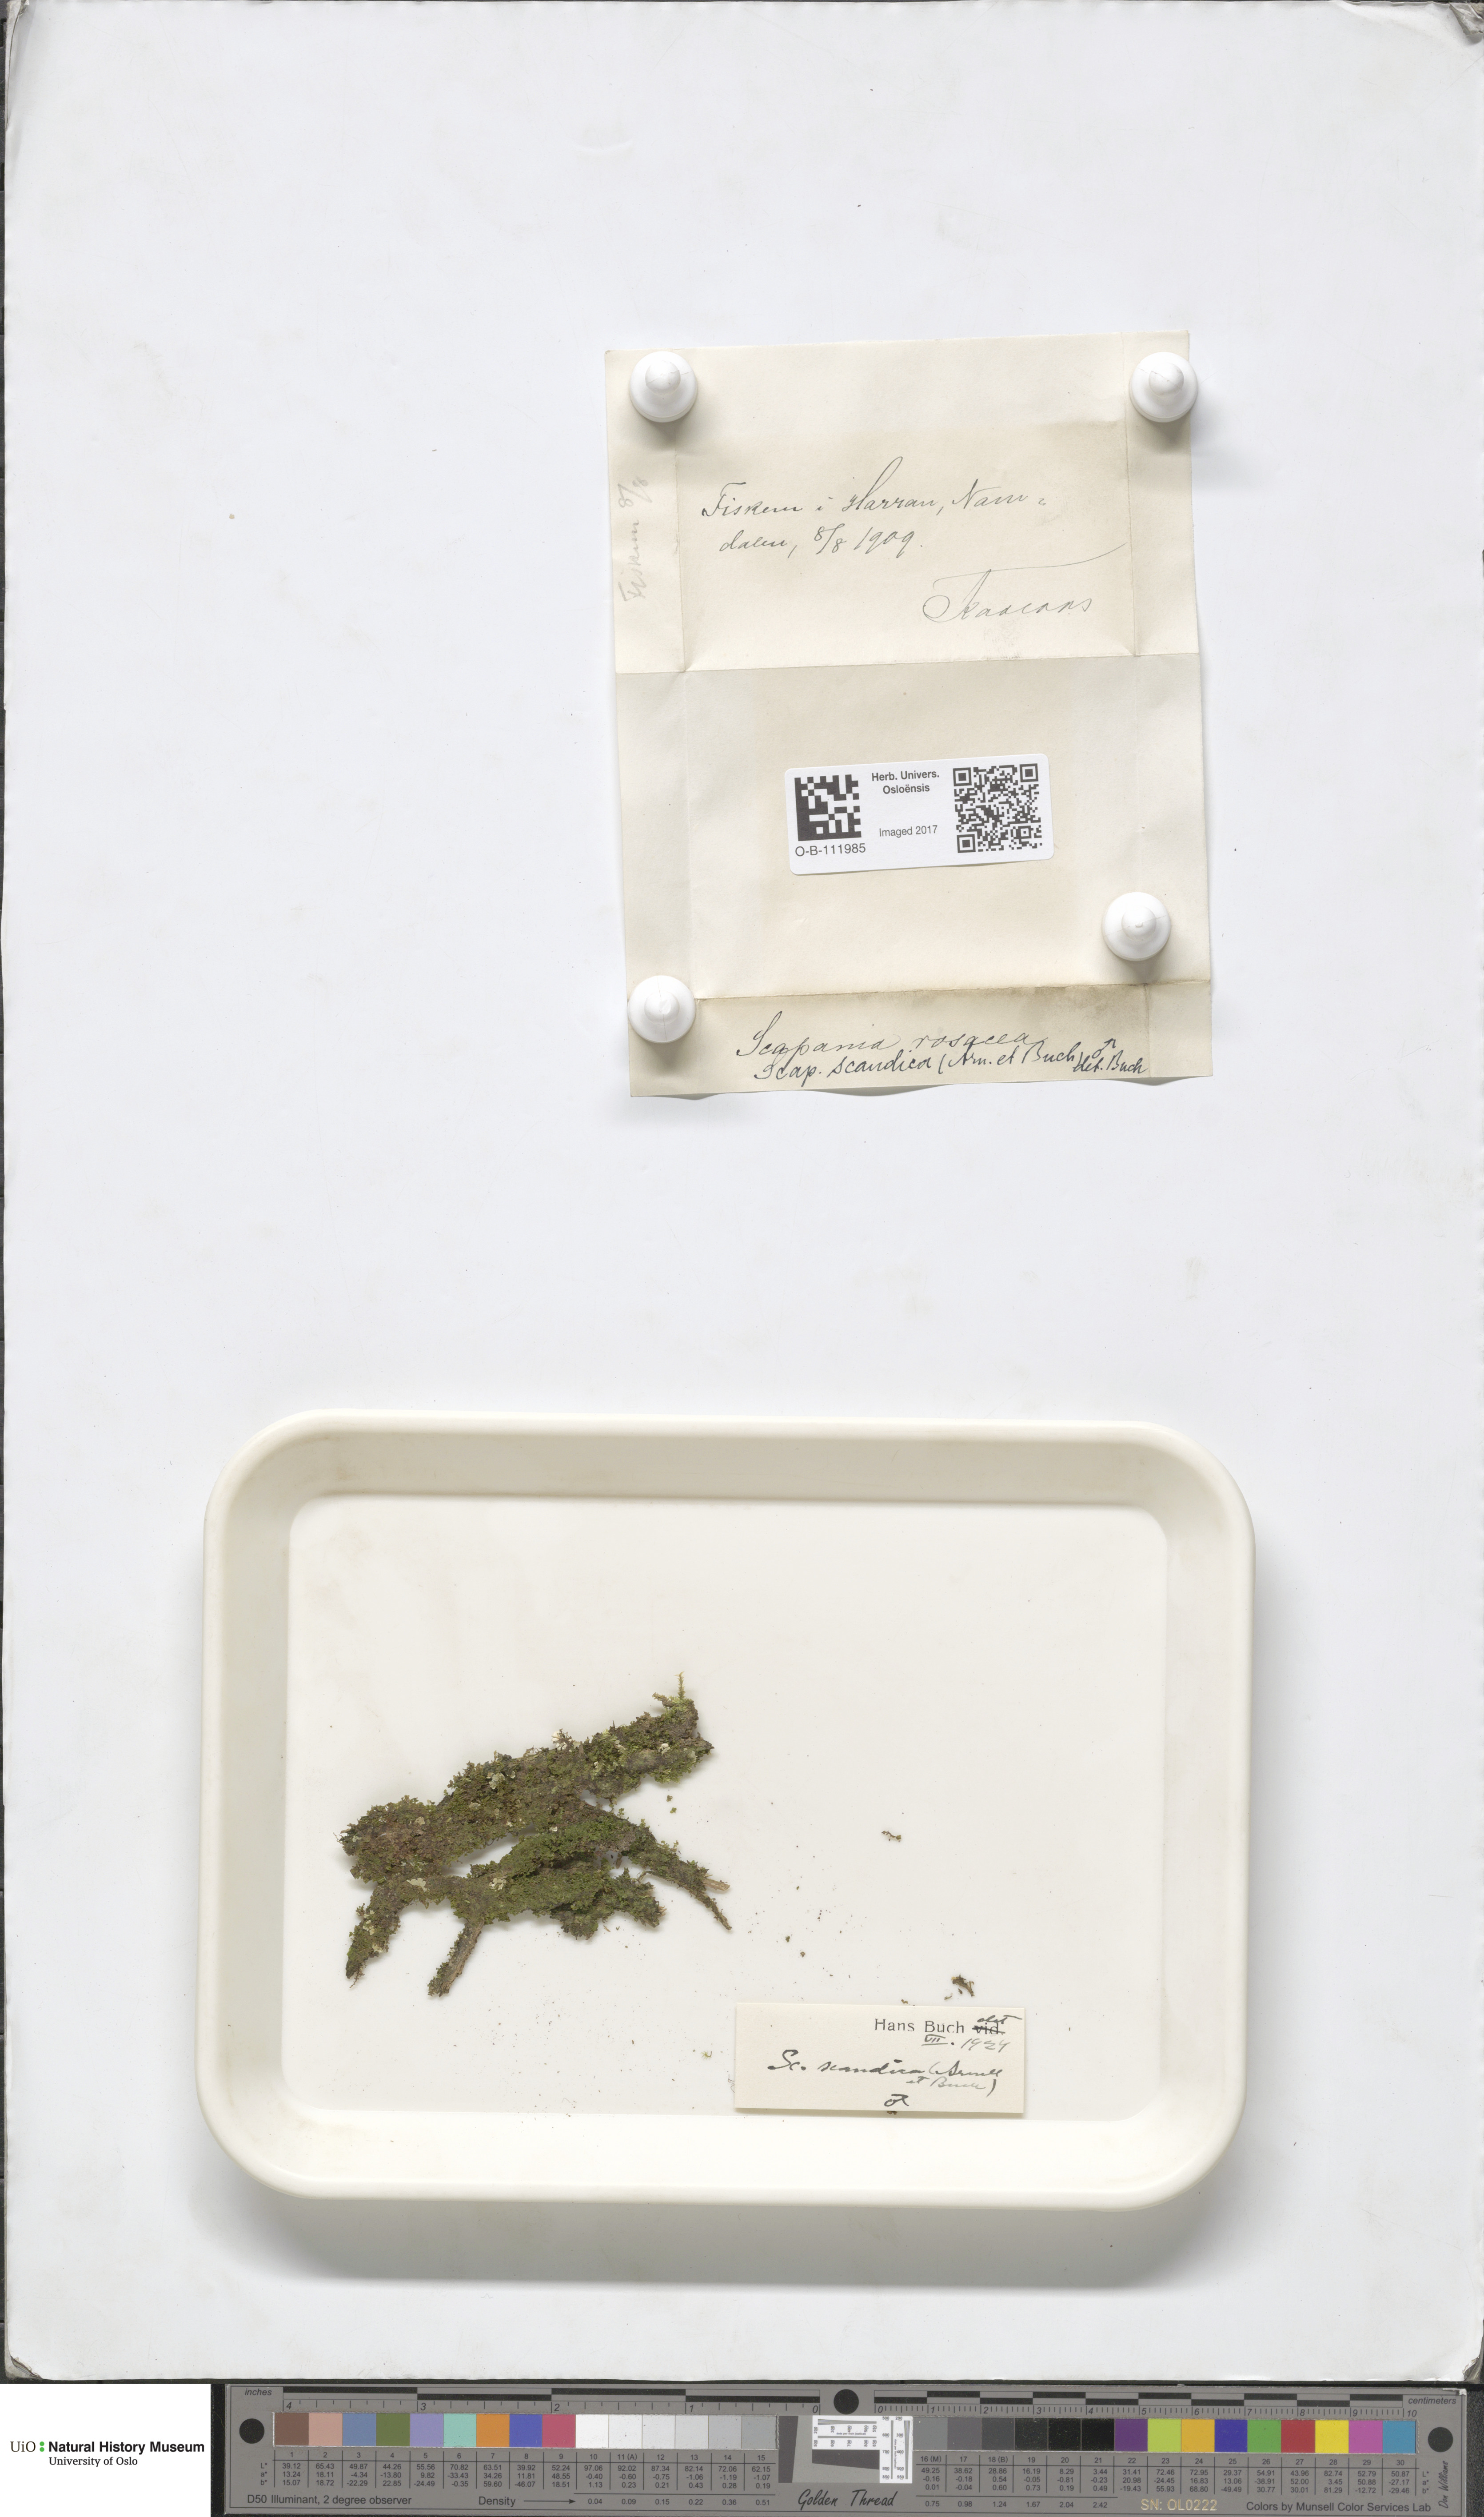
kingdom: Plantae
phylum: Marchantiophyta
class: Jungermanniopsida
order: Jungermanniales
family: Scapaniaceae
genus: Scapania
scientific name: Scapania scandica
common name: Norwegian earwort
